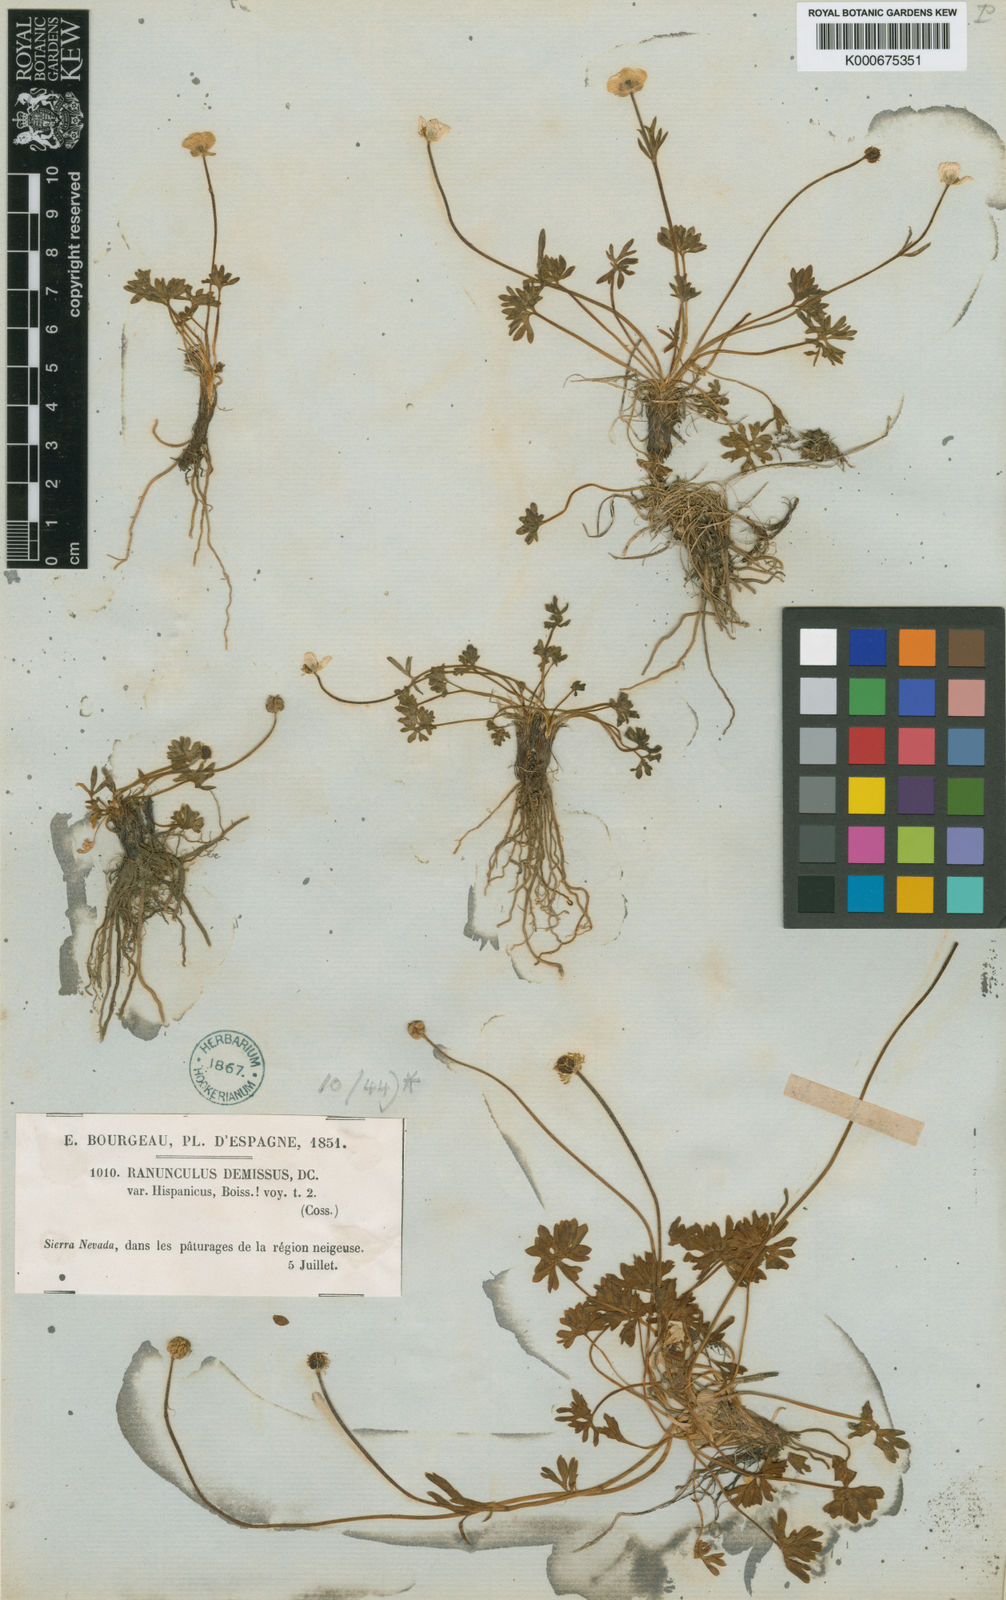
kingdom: Plantae
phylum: Tracheophyta
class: Magnoliopsida
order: Ranunculales
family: Ranunculaceae
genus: Ranunculus
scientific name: Ranunculus demissus
